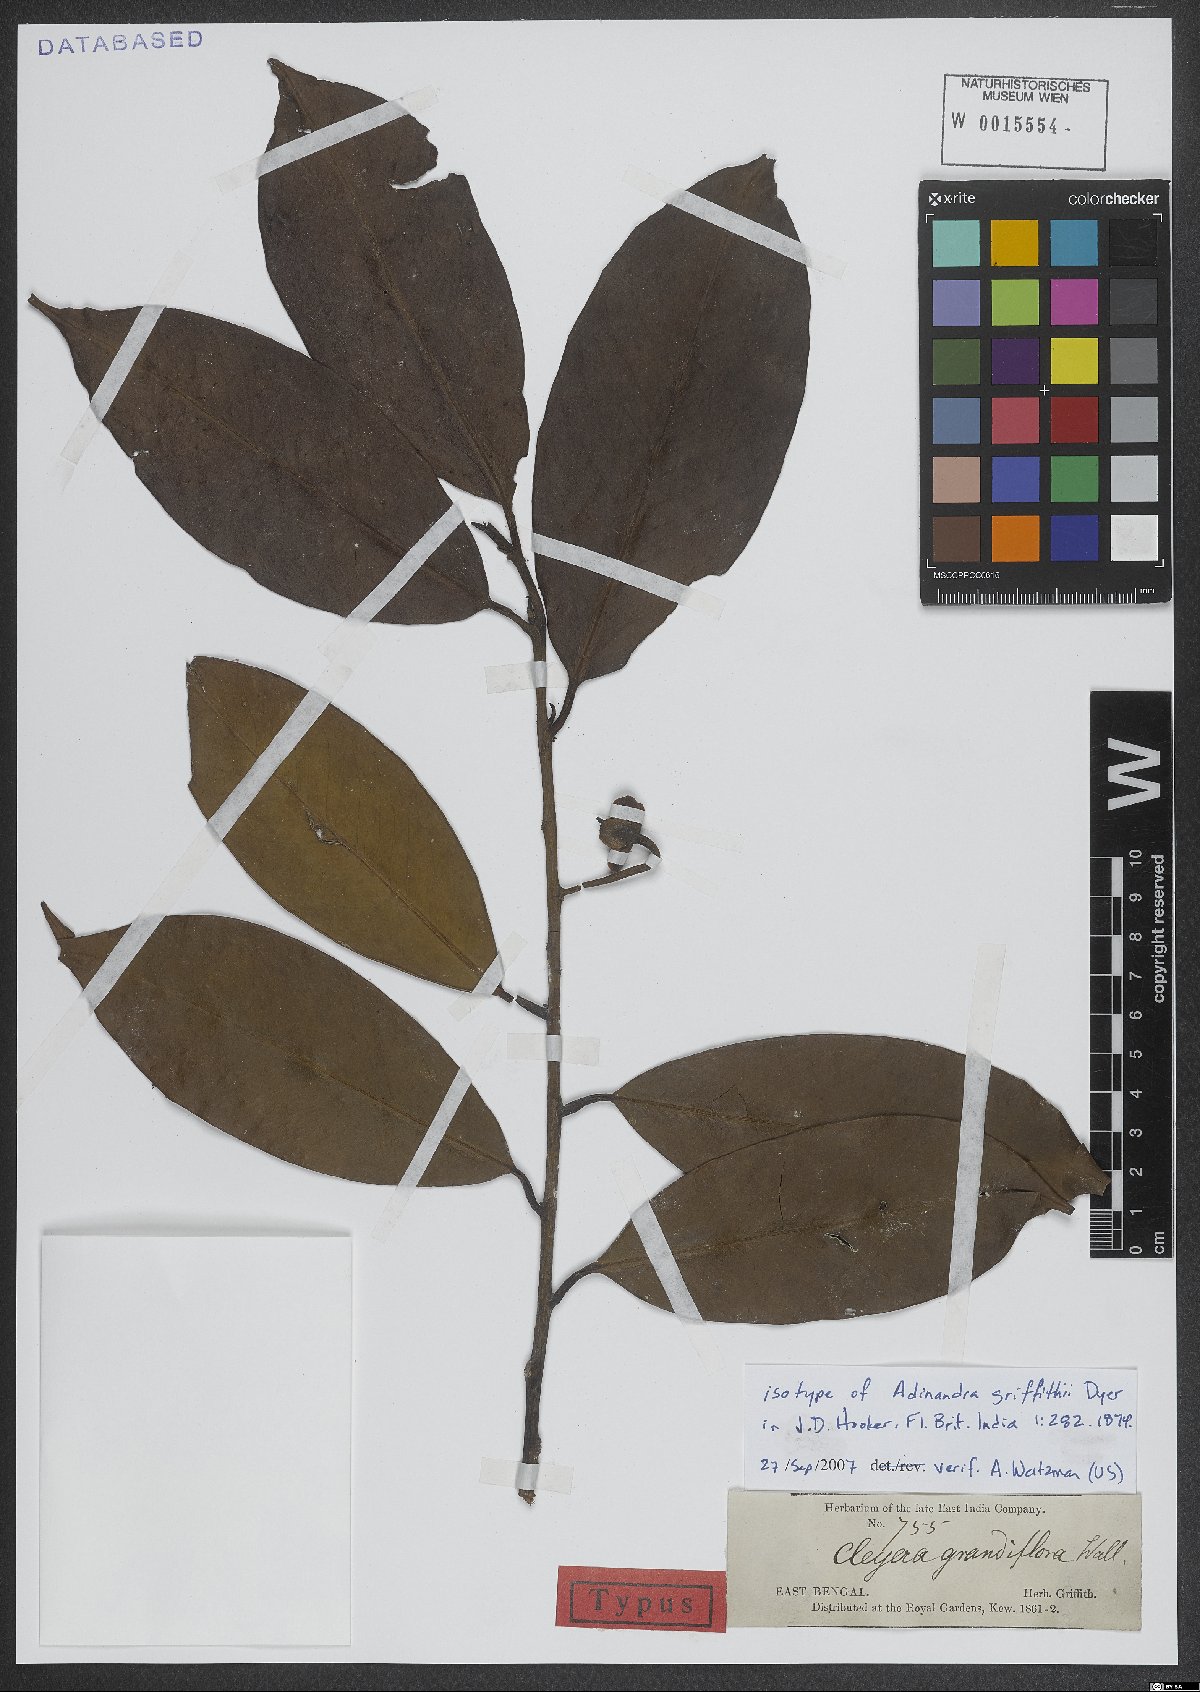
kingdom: Plantae
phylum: Tracheophyta
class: Magnoliopsida
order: Ericales
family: Pentaphylacaceae
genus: Adinandra
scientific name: Adinandra griffithii
